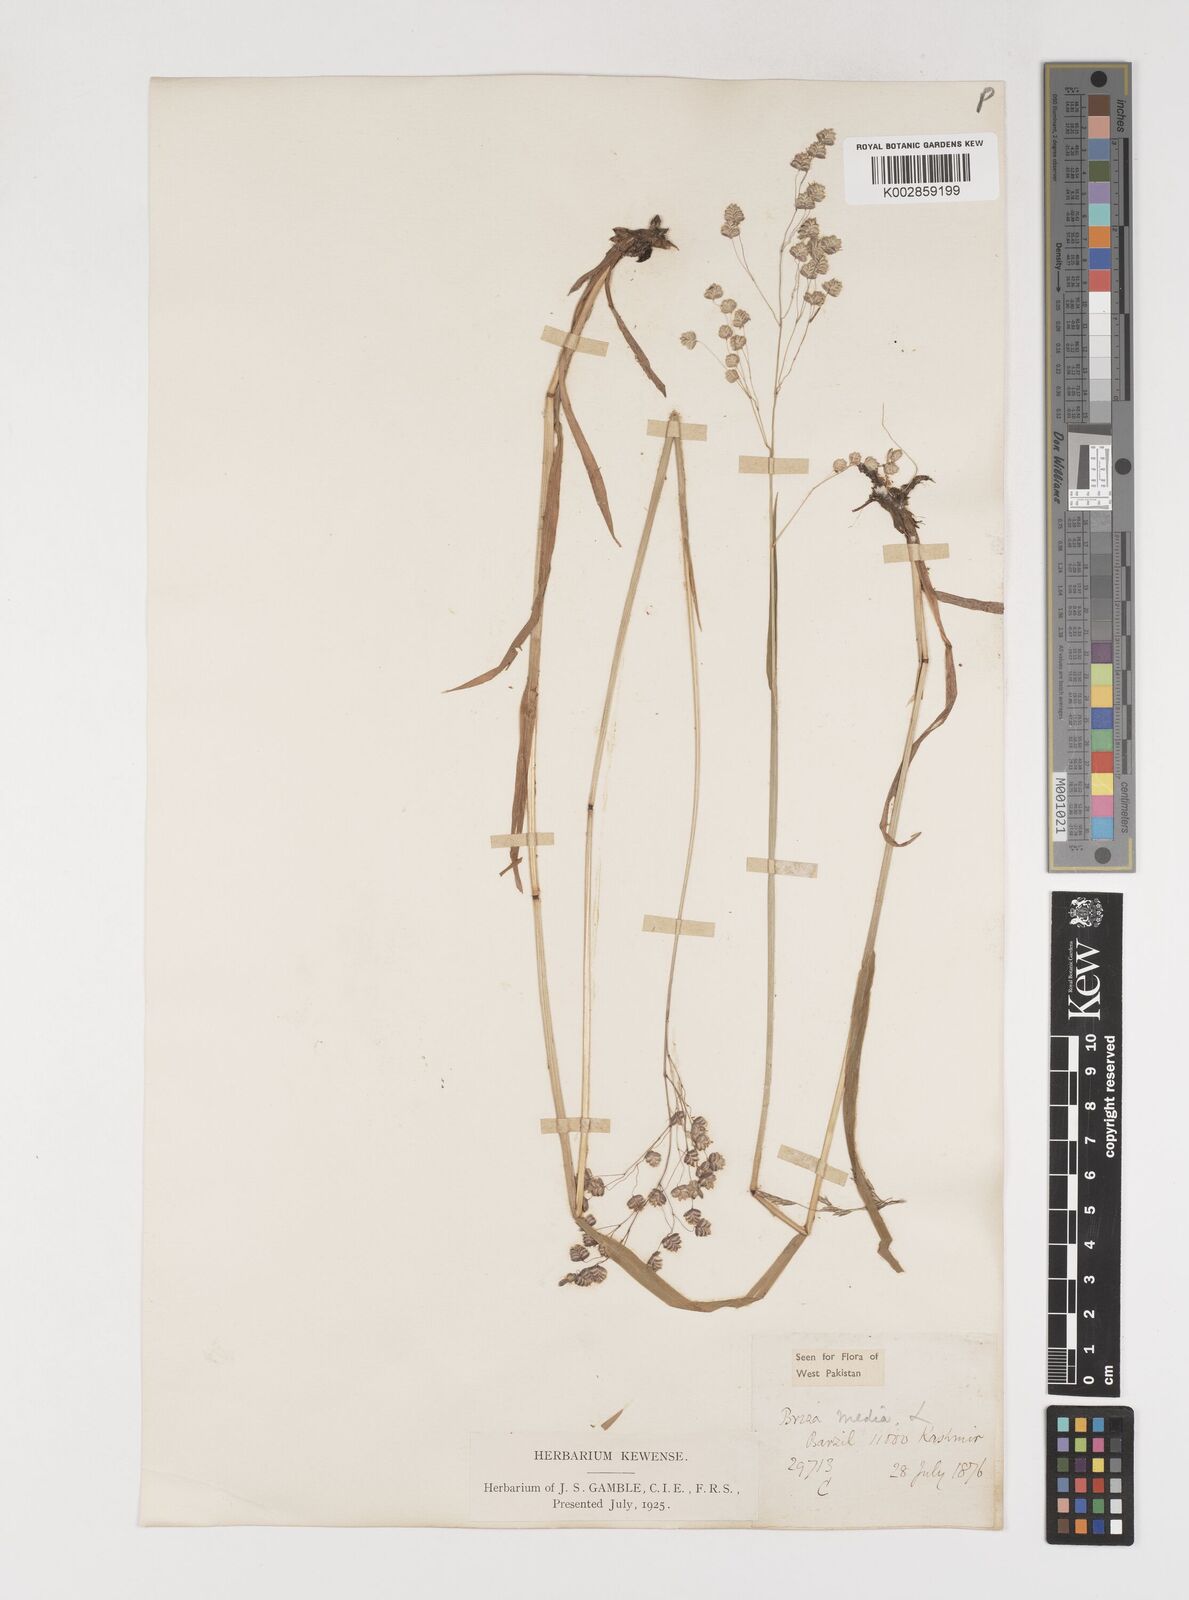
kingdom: Plantae
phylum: Tracheophyta
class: Liliopsida
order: Poales
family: Poaceae
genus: Briza
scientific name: Briza media
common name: Quaking grass
